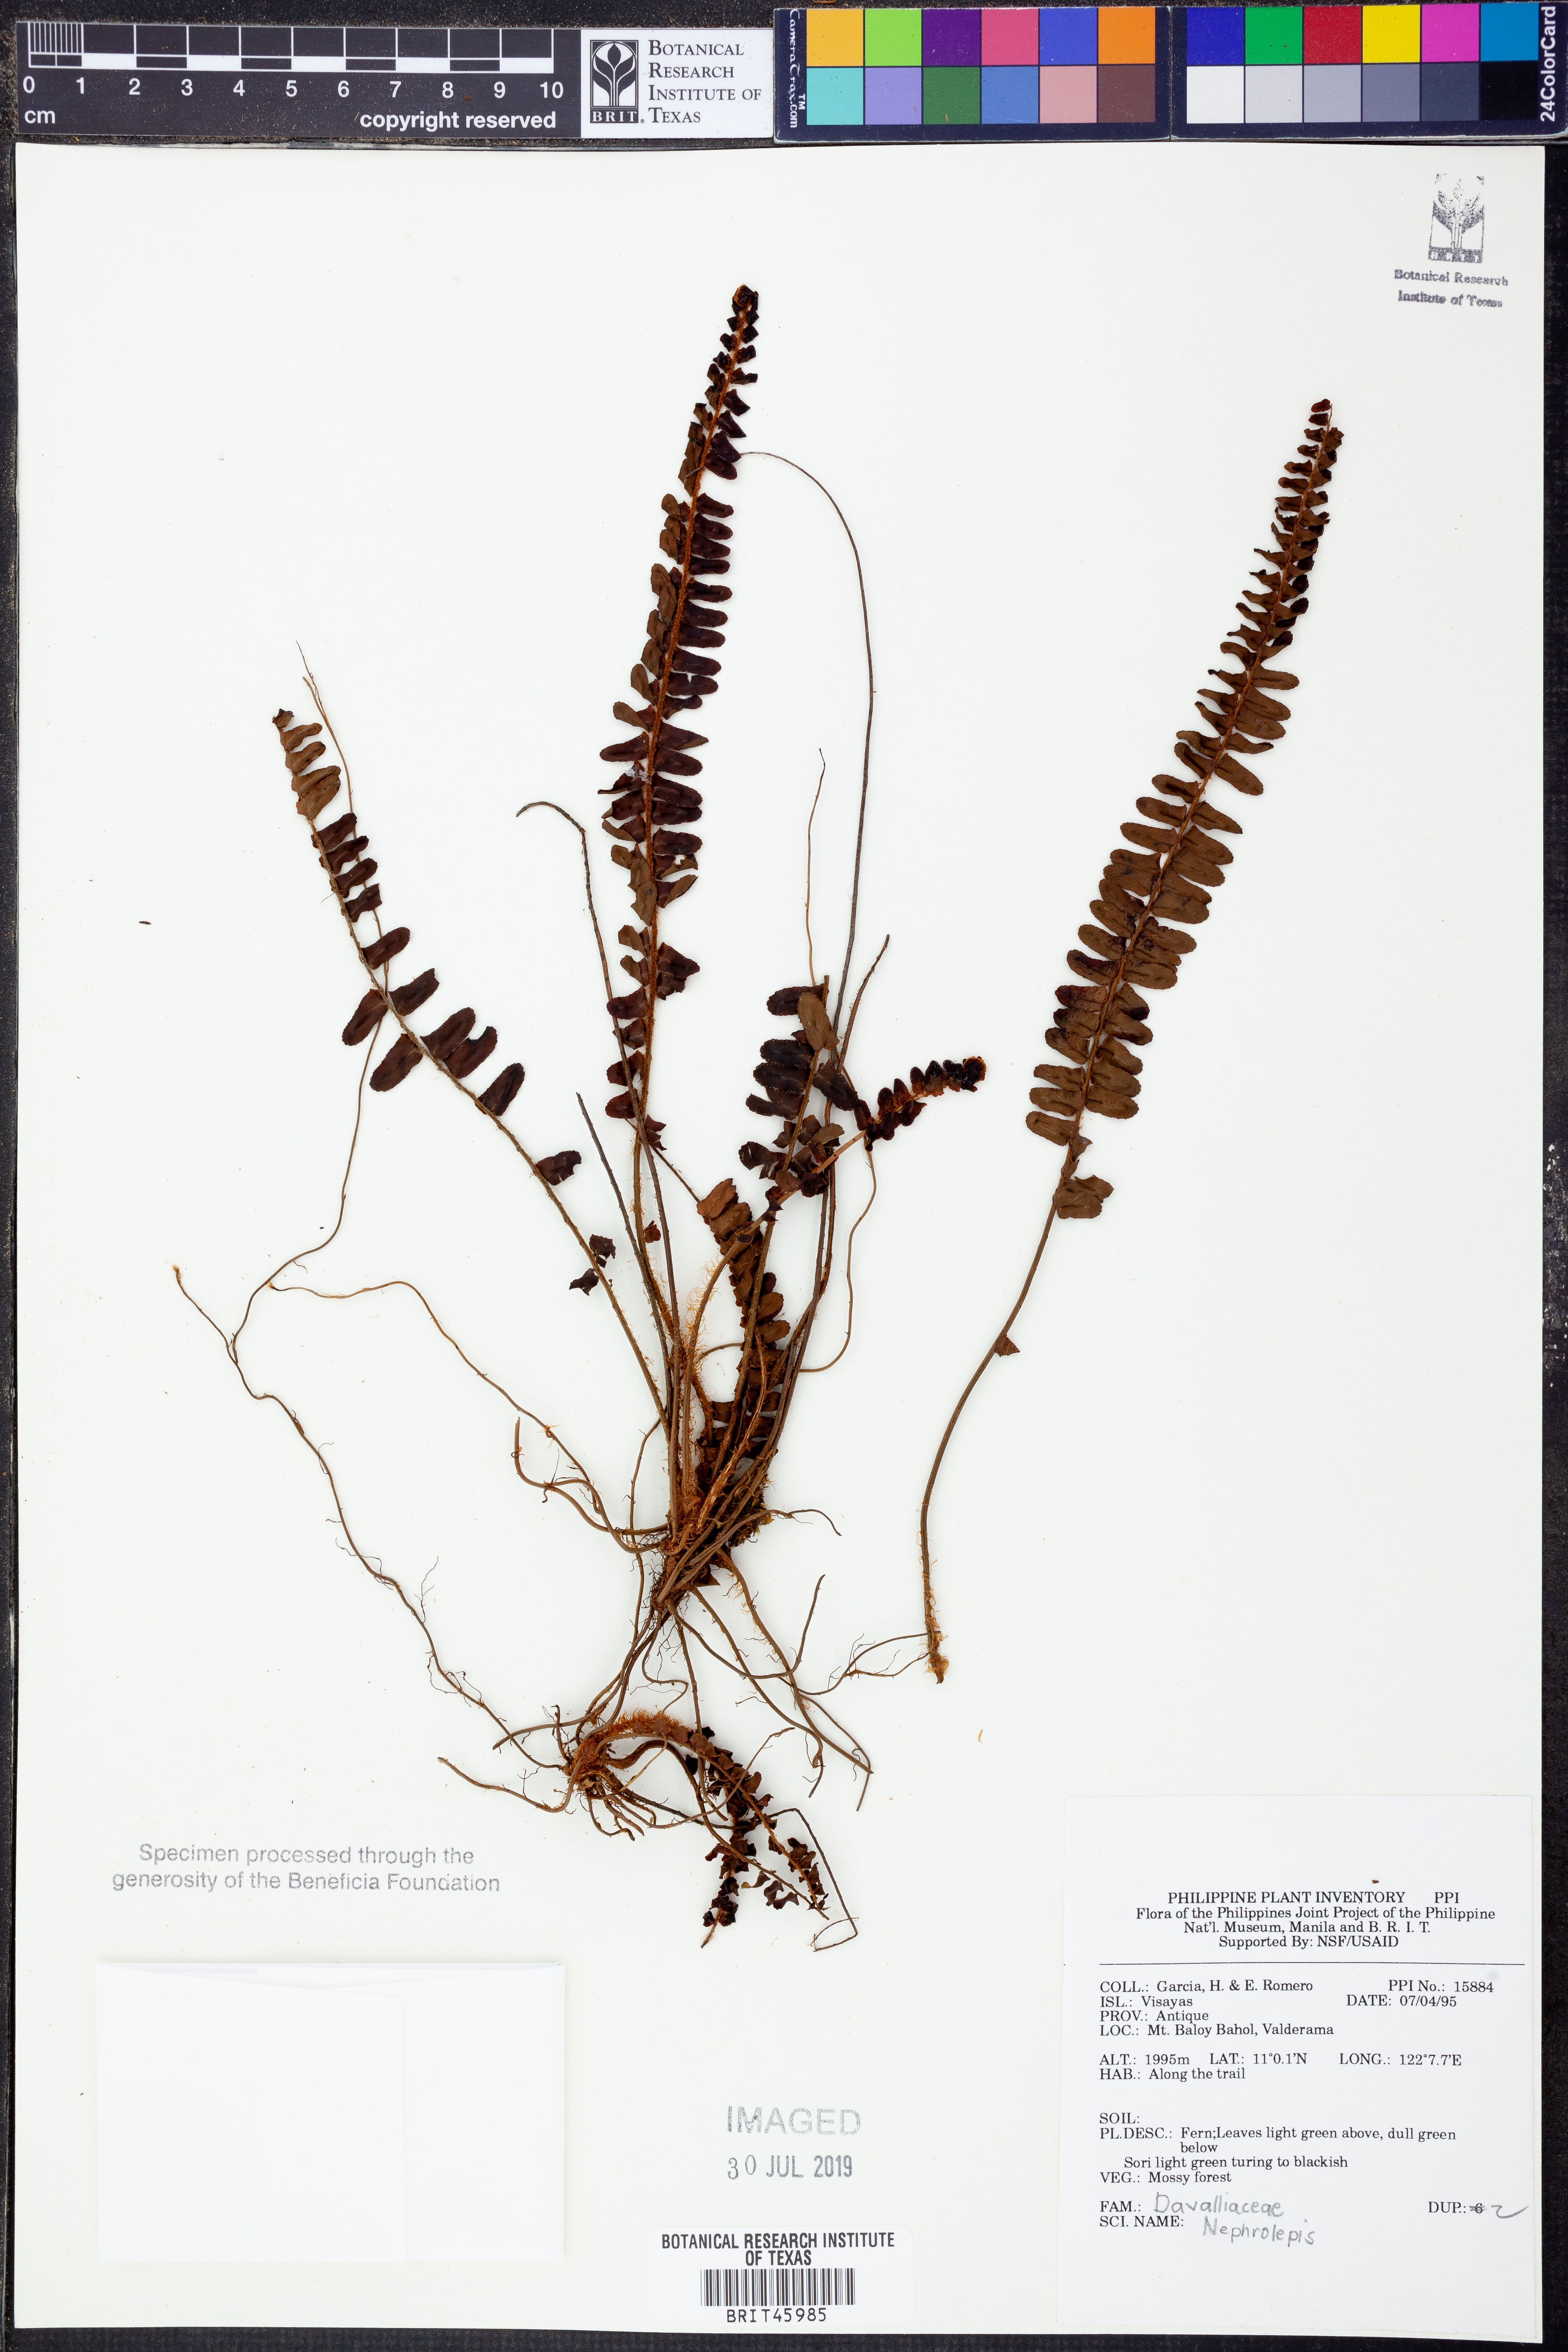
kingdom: Plantae
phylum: Tracheophyta
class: Polypodiopsida
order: Polypodiales
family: Nephrolepidaceae
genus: Nephrolepis
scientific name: Nephrolepis
